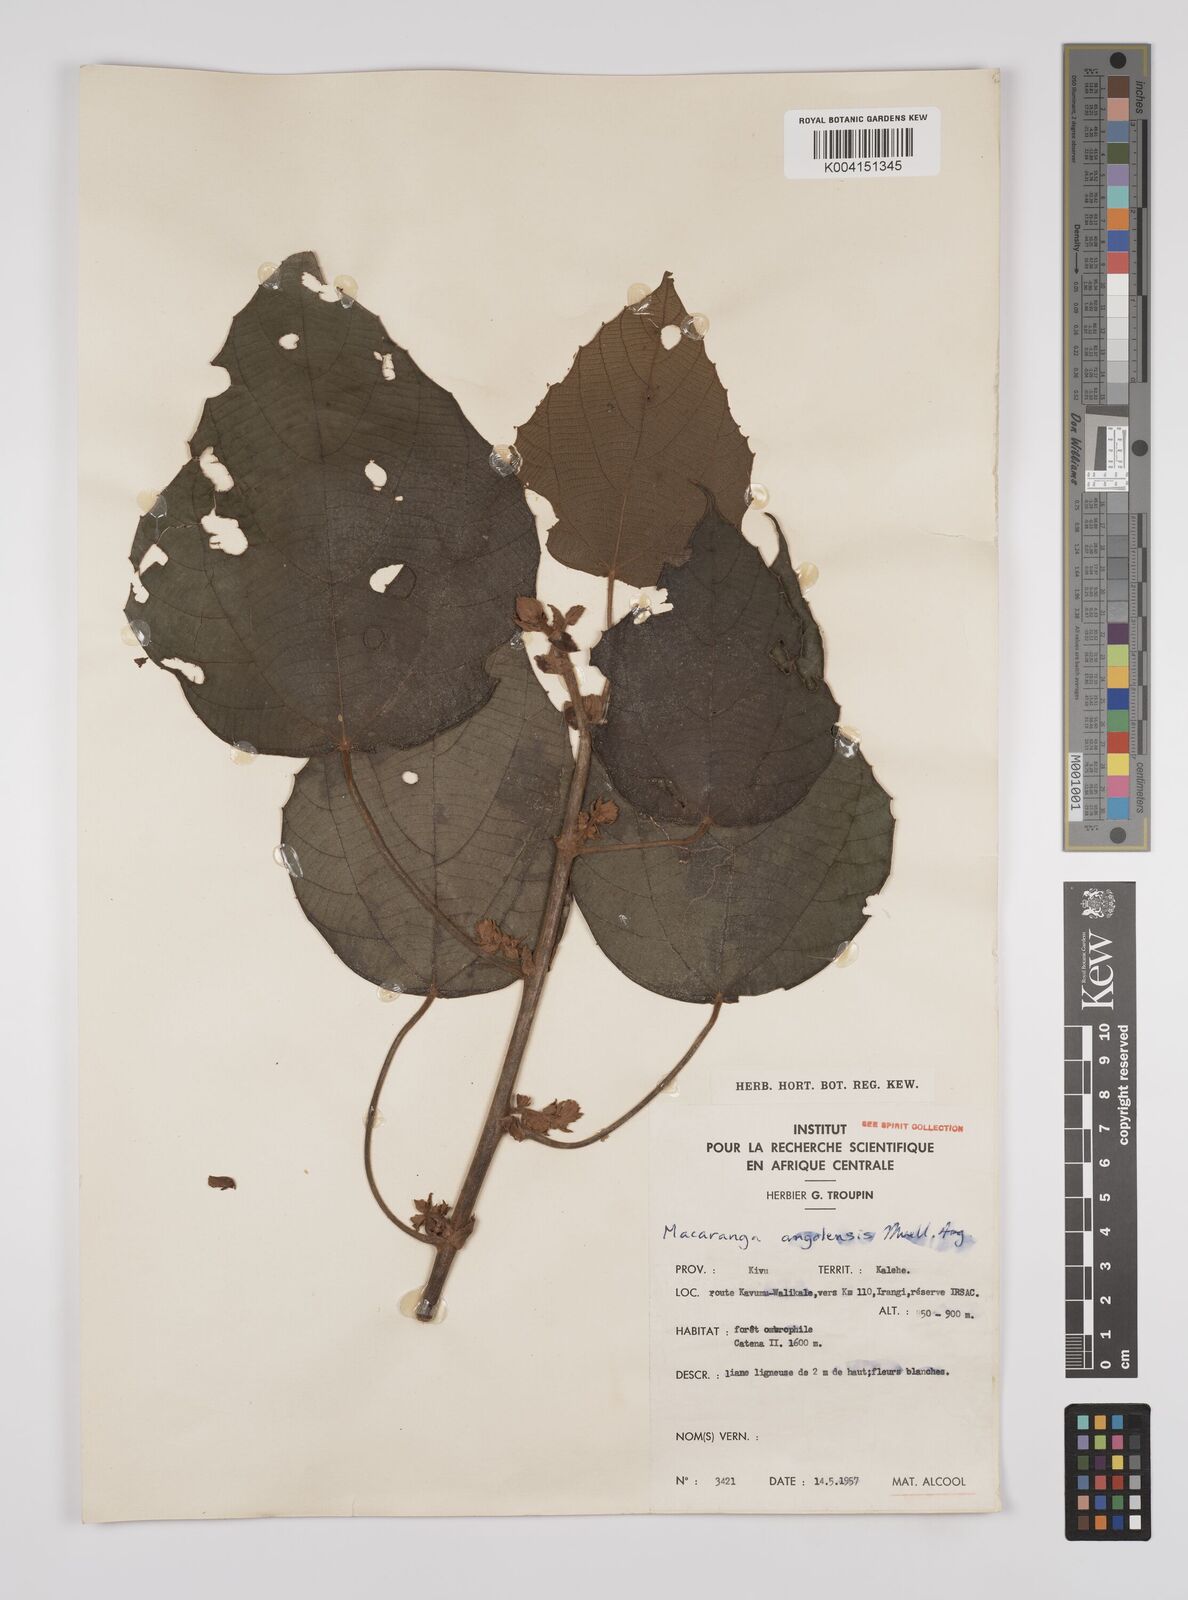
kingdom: Plantae
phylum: Tracheophyta
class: Magnoliopsida
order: Malpighiales
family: Euphorbiaceae
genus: Macaranga
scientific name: Macaranga angolensis
